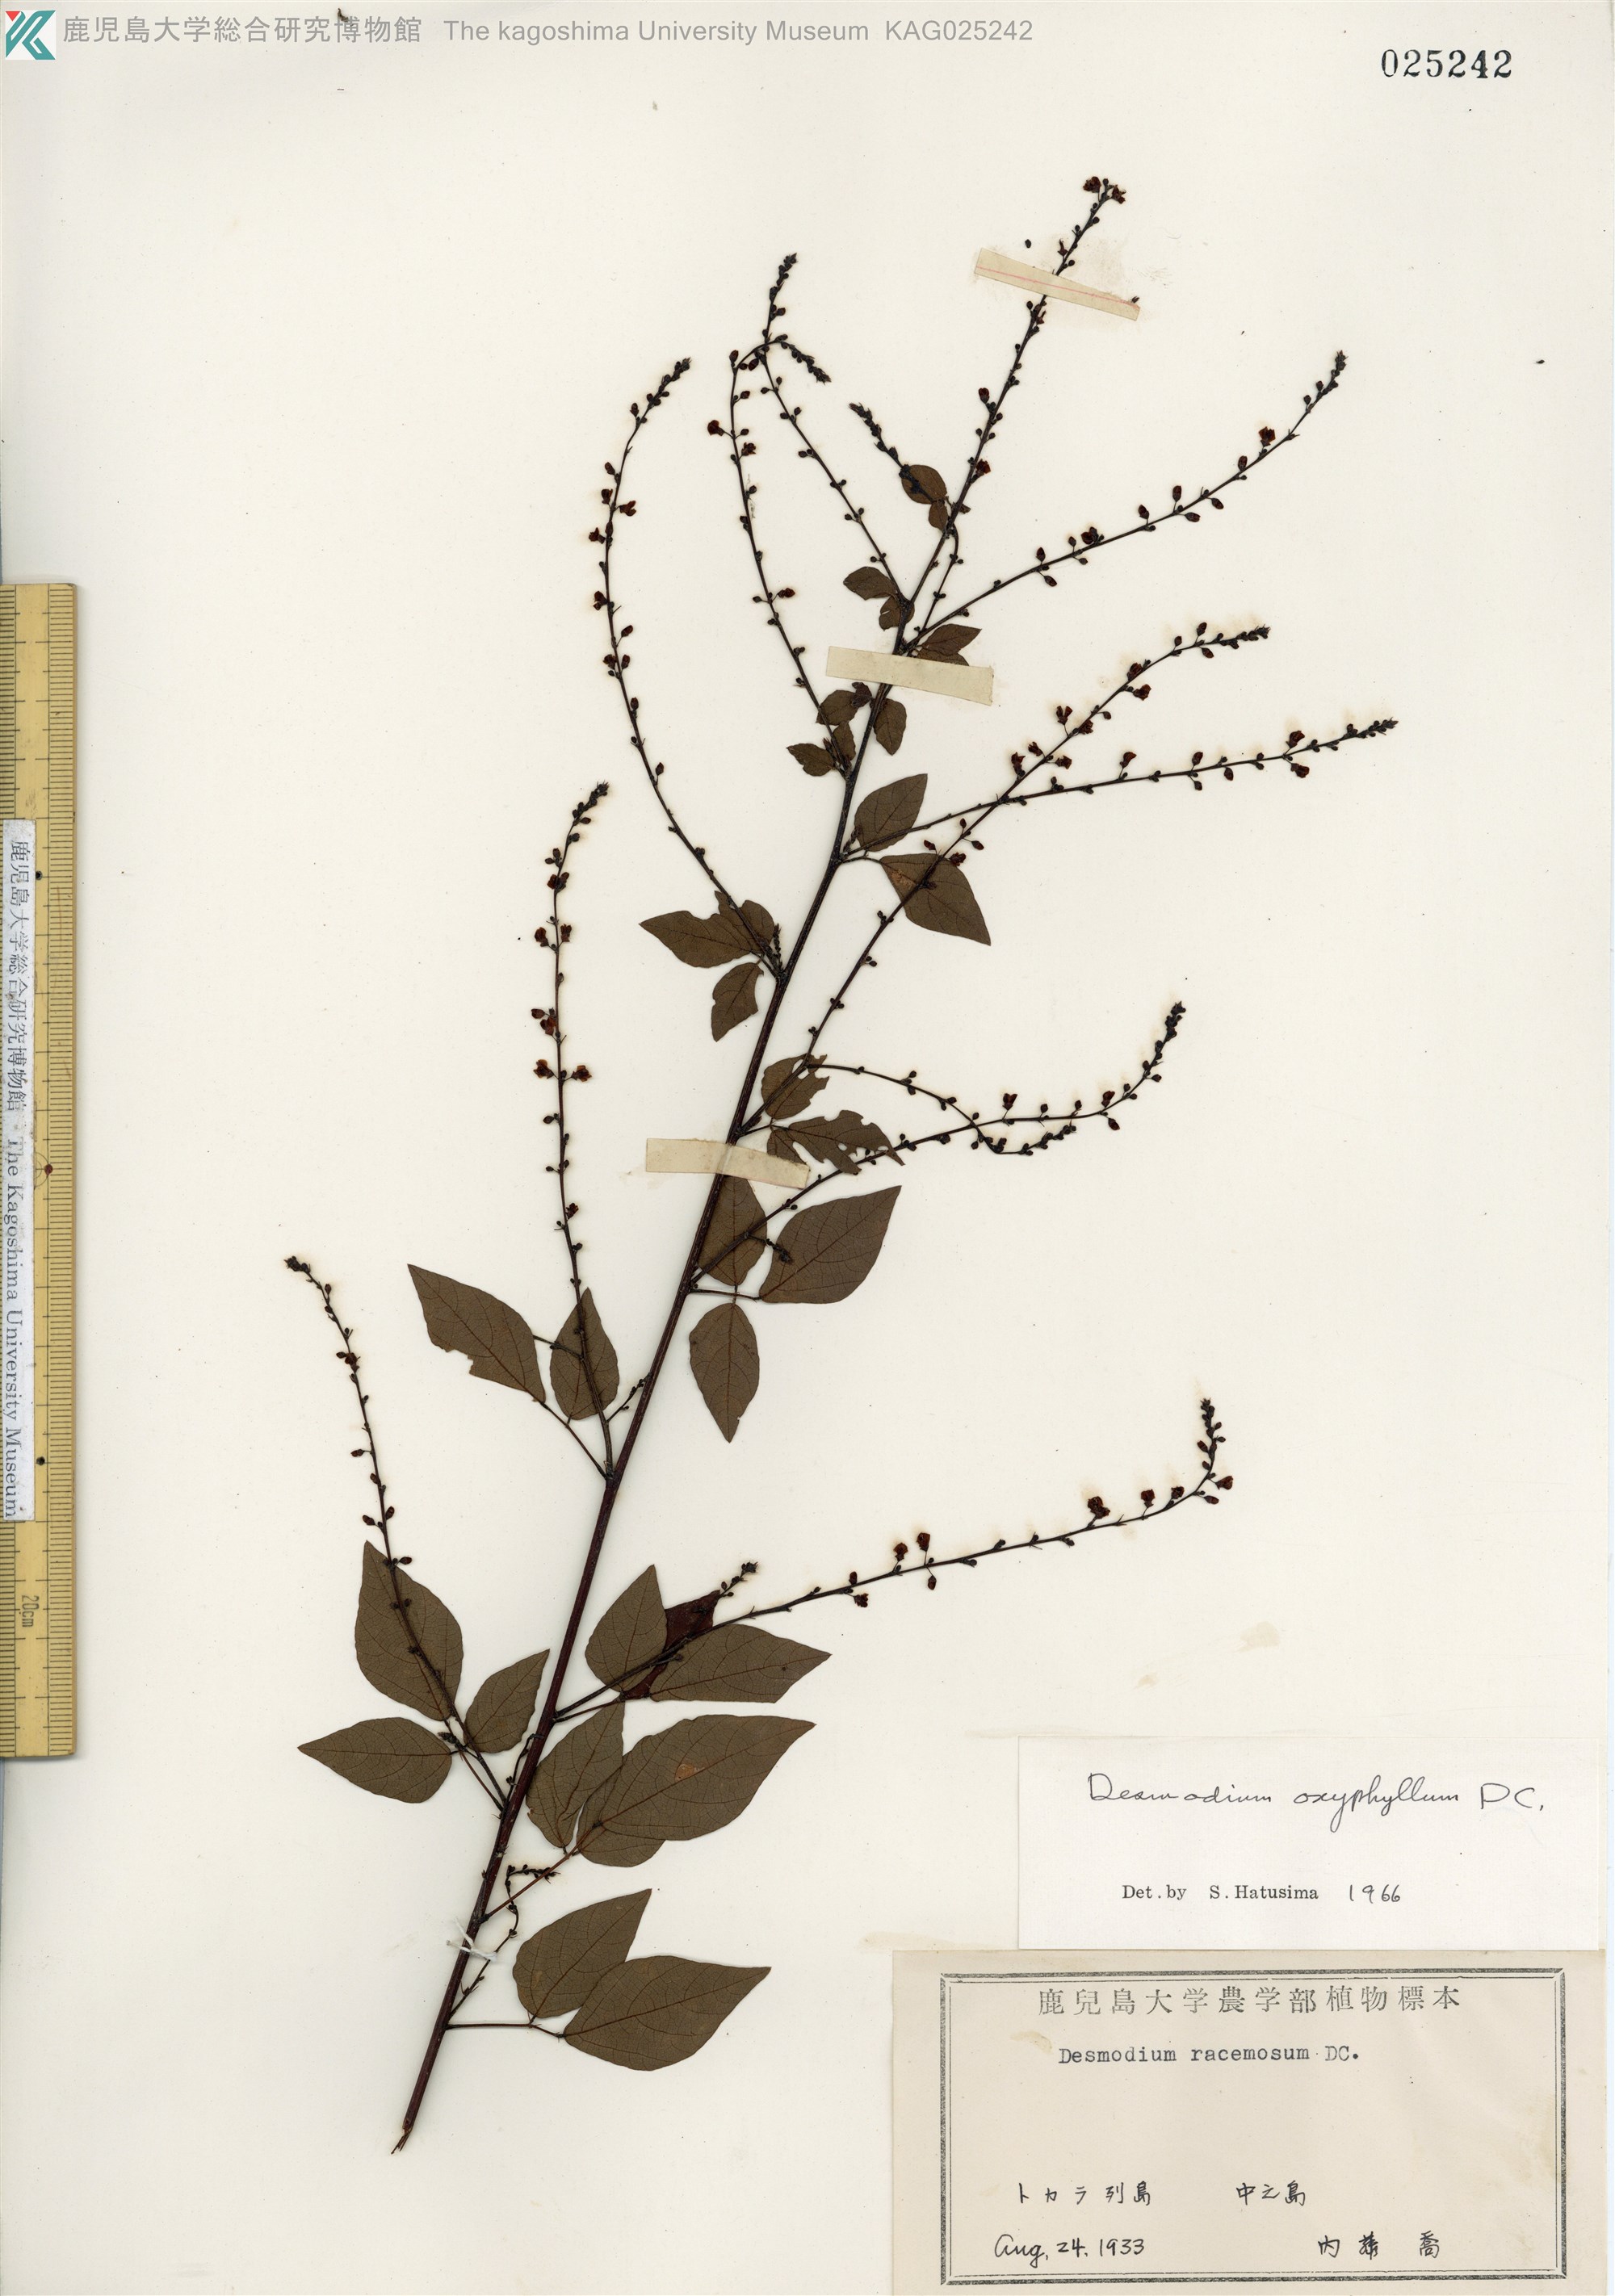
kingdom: Plantae
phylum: Tracheophyta
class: Magnoliopsida
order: Fabales
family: Fabaceae
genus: Hylodesmum
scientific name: Hylodesmum podocarpum
